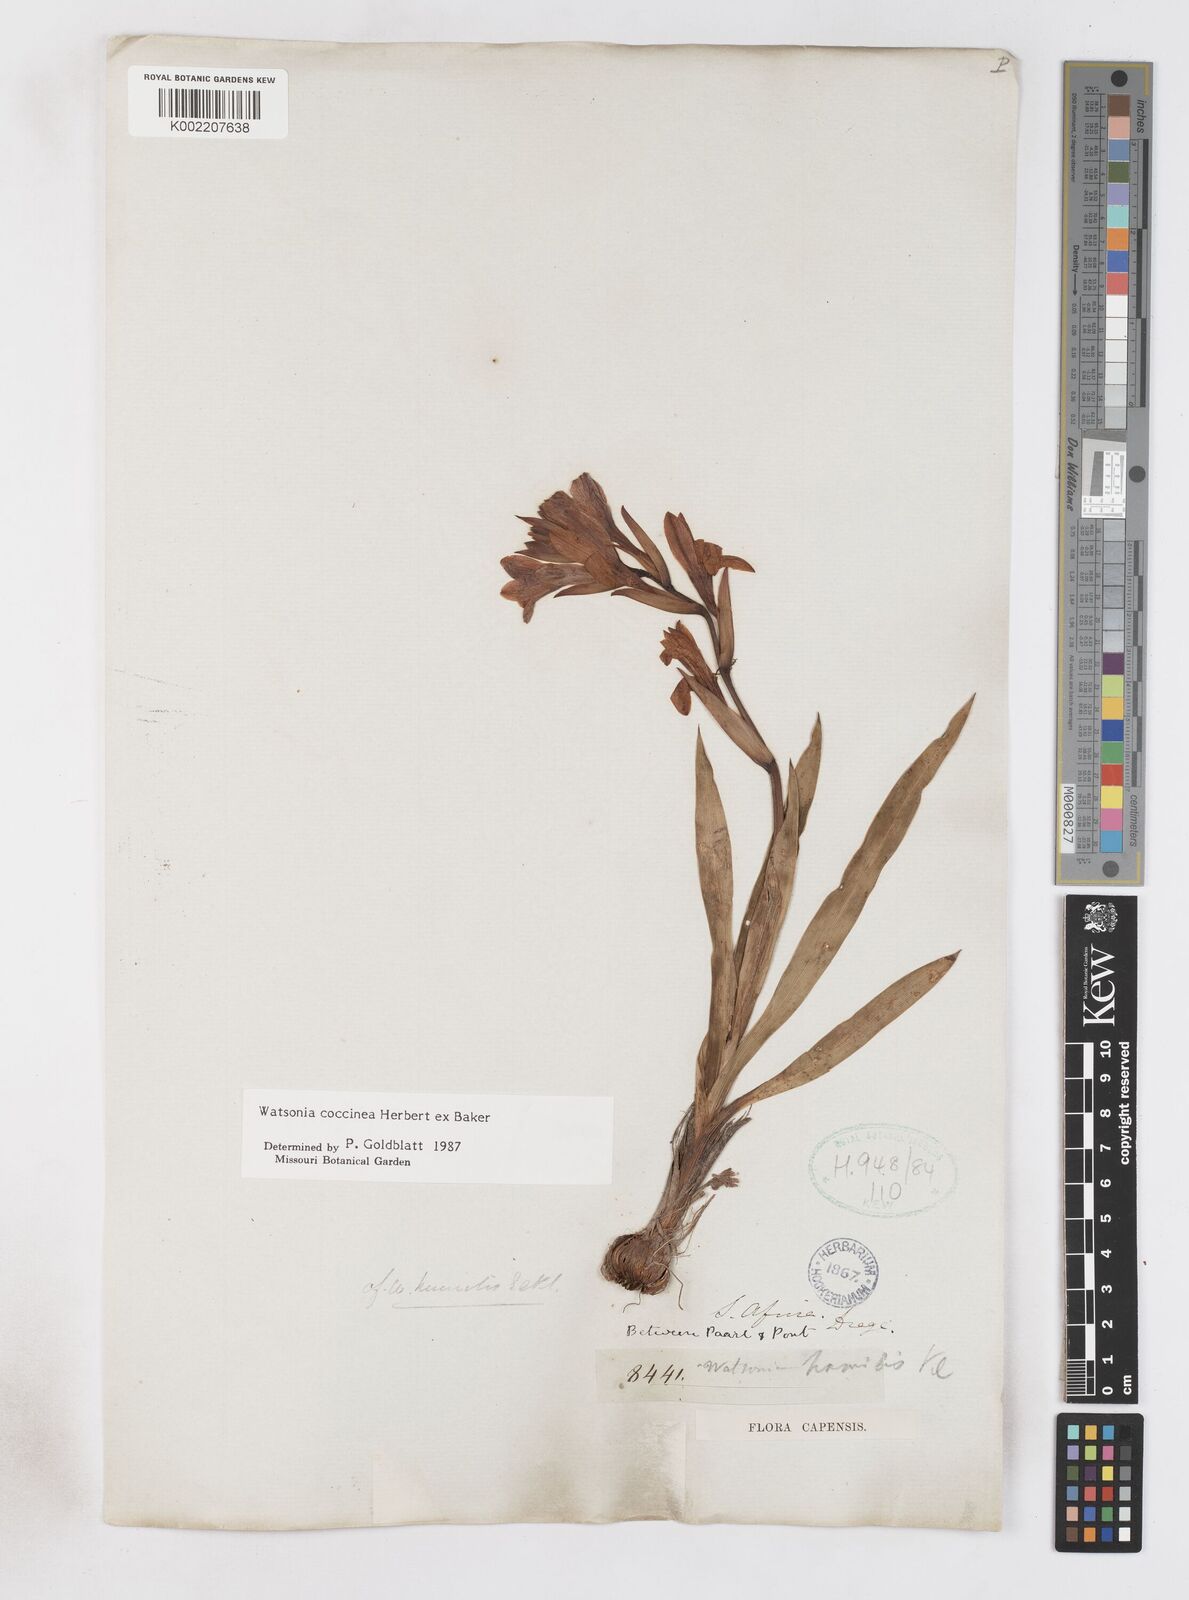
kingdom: Plantae
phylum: Tracheophyta
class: Liliopsida
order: Asparagales
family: Iridaceae
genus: Watsonia
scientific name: Watsonia coccinea
